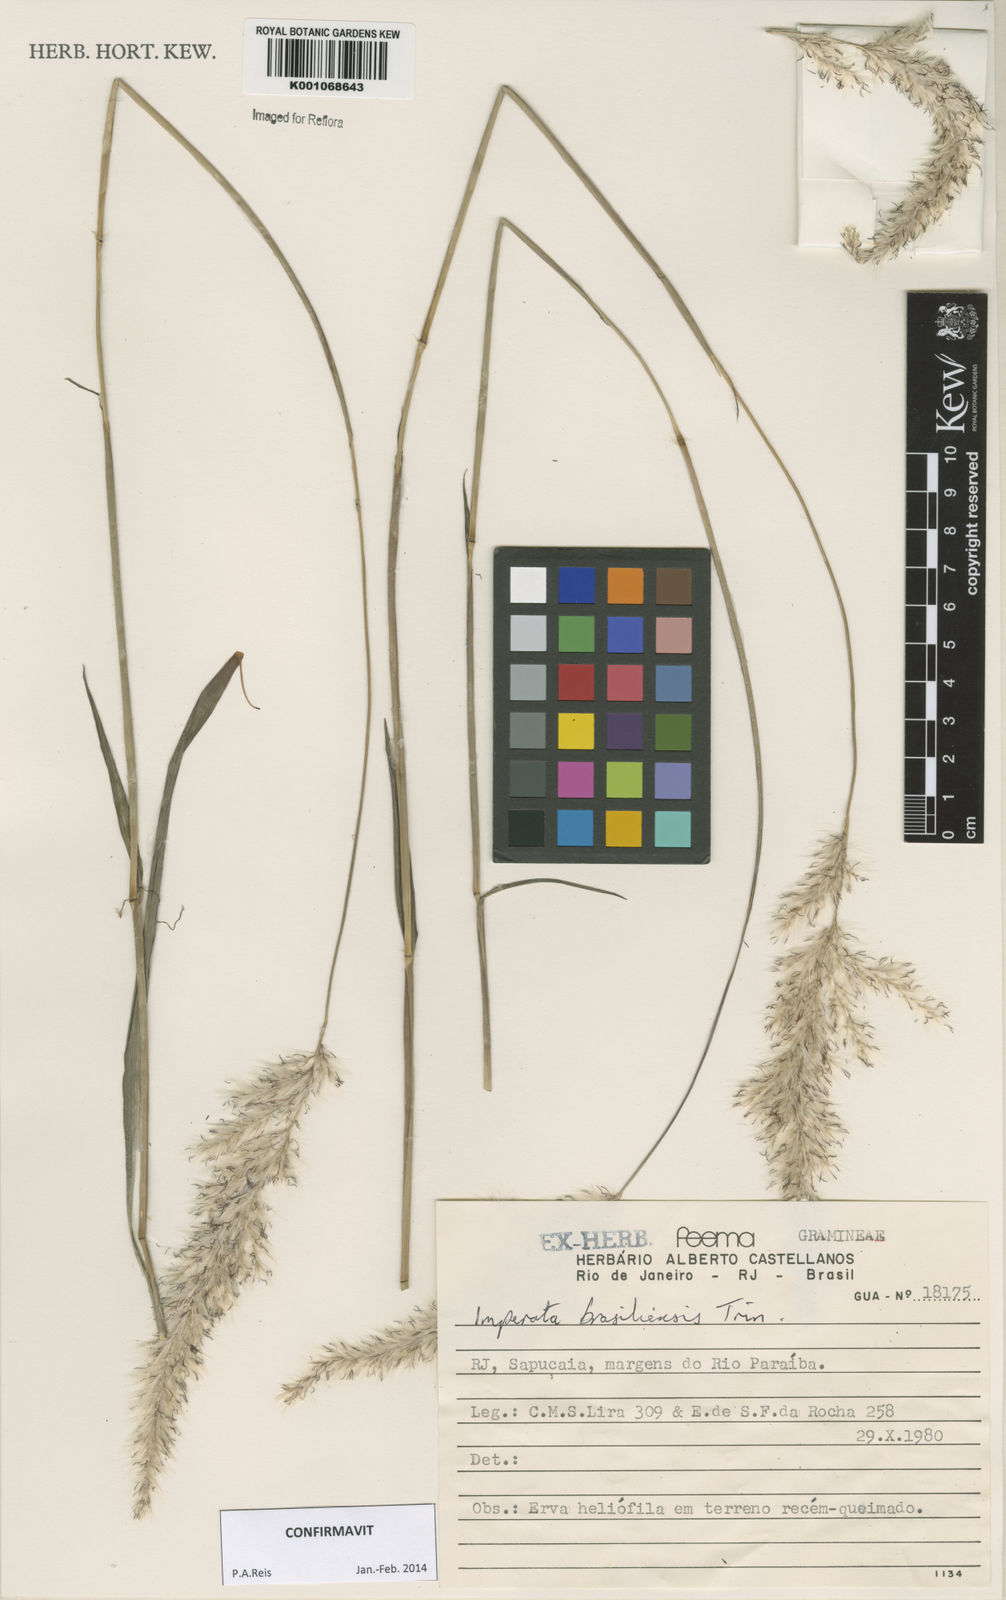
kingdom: Plantae
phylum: Tracheophyta
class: Liliopsida
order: Poales
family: Poaceae
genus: Imperata
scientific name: Imperata brasiliensis
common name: Brazilian satintail
